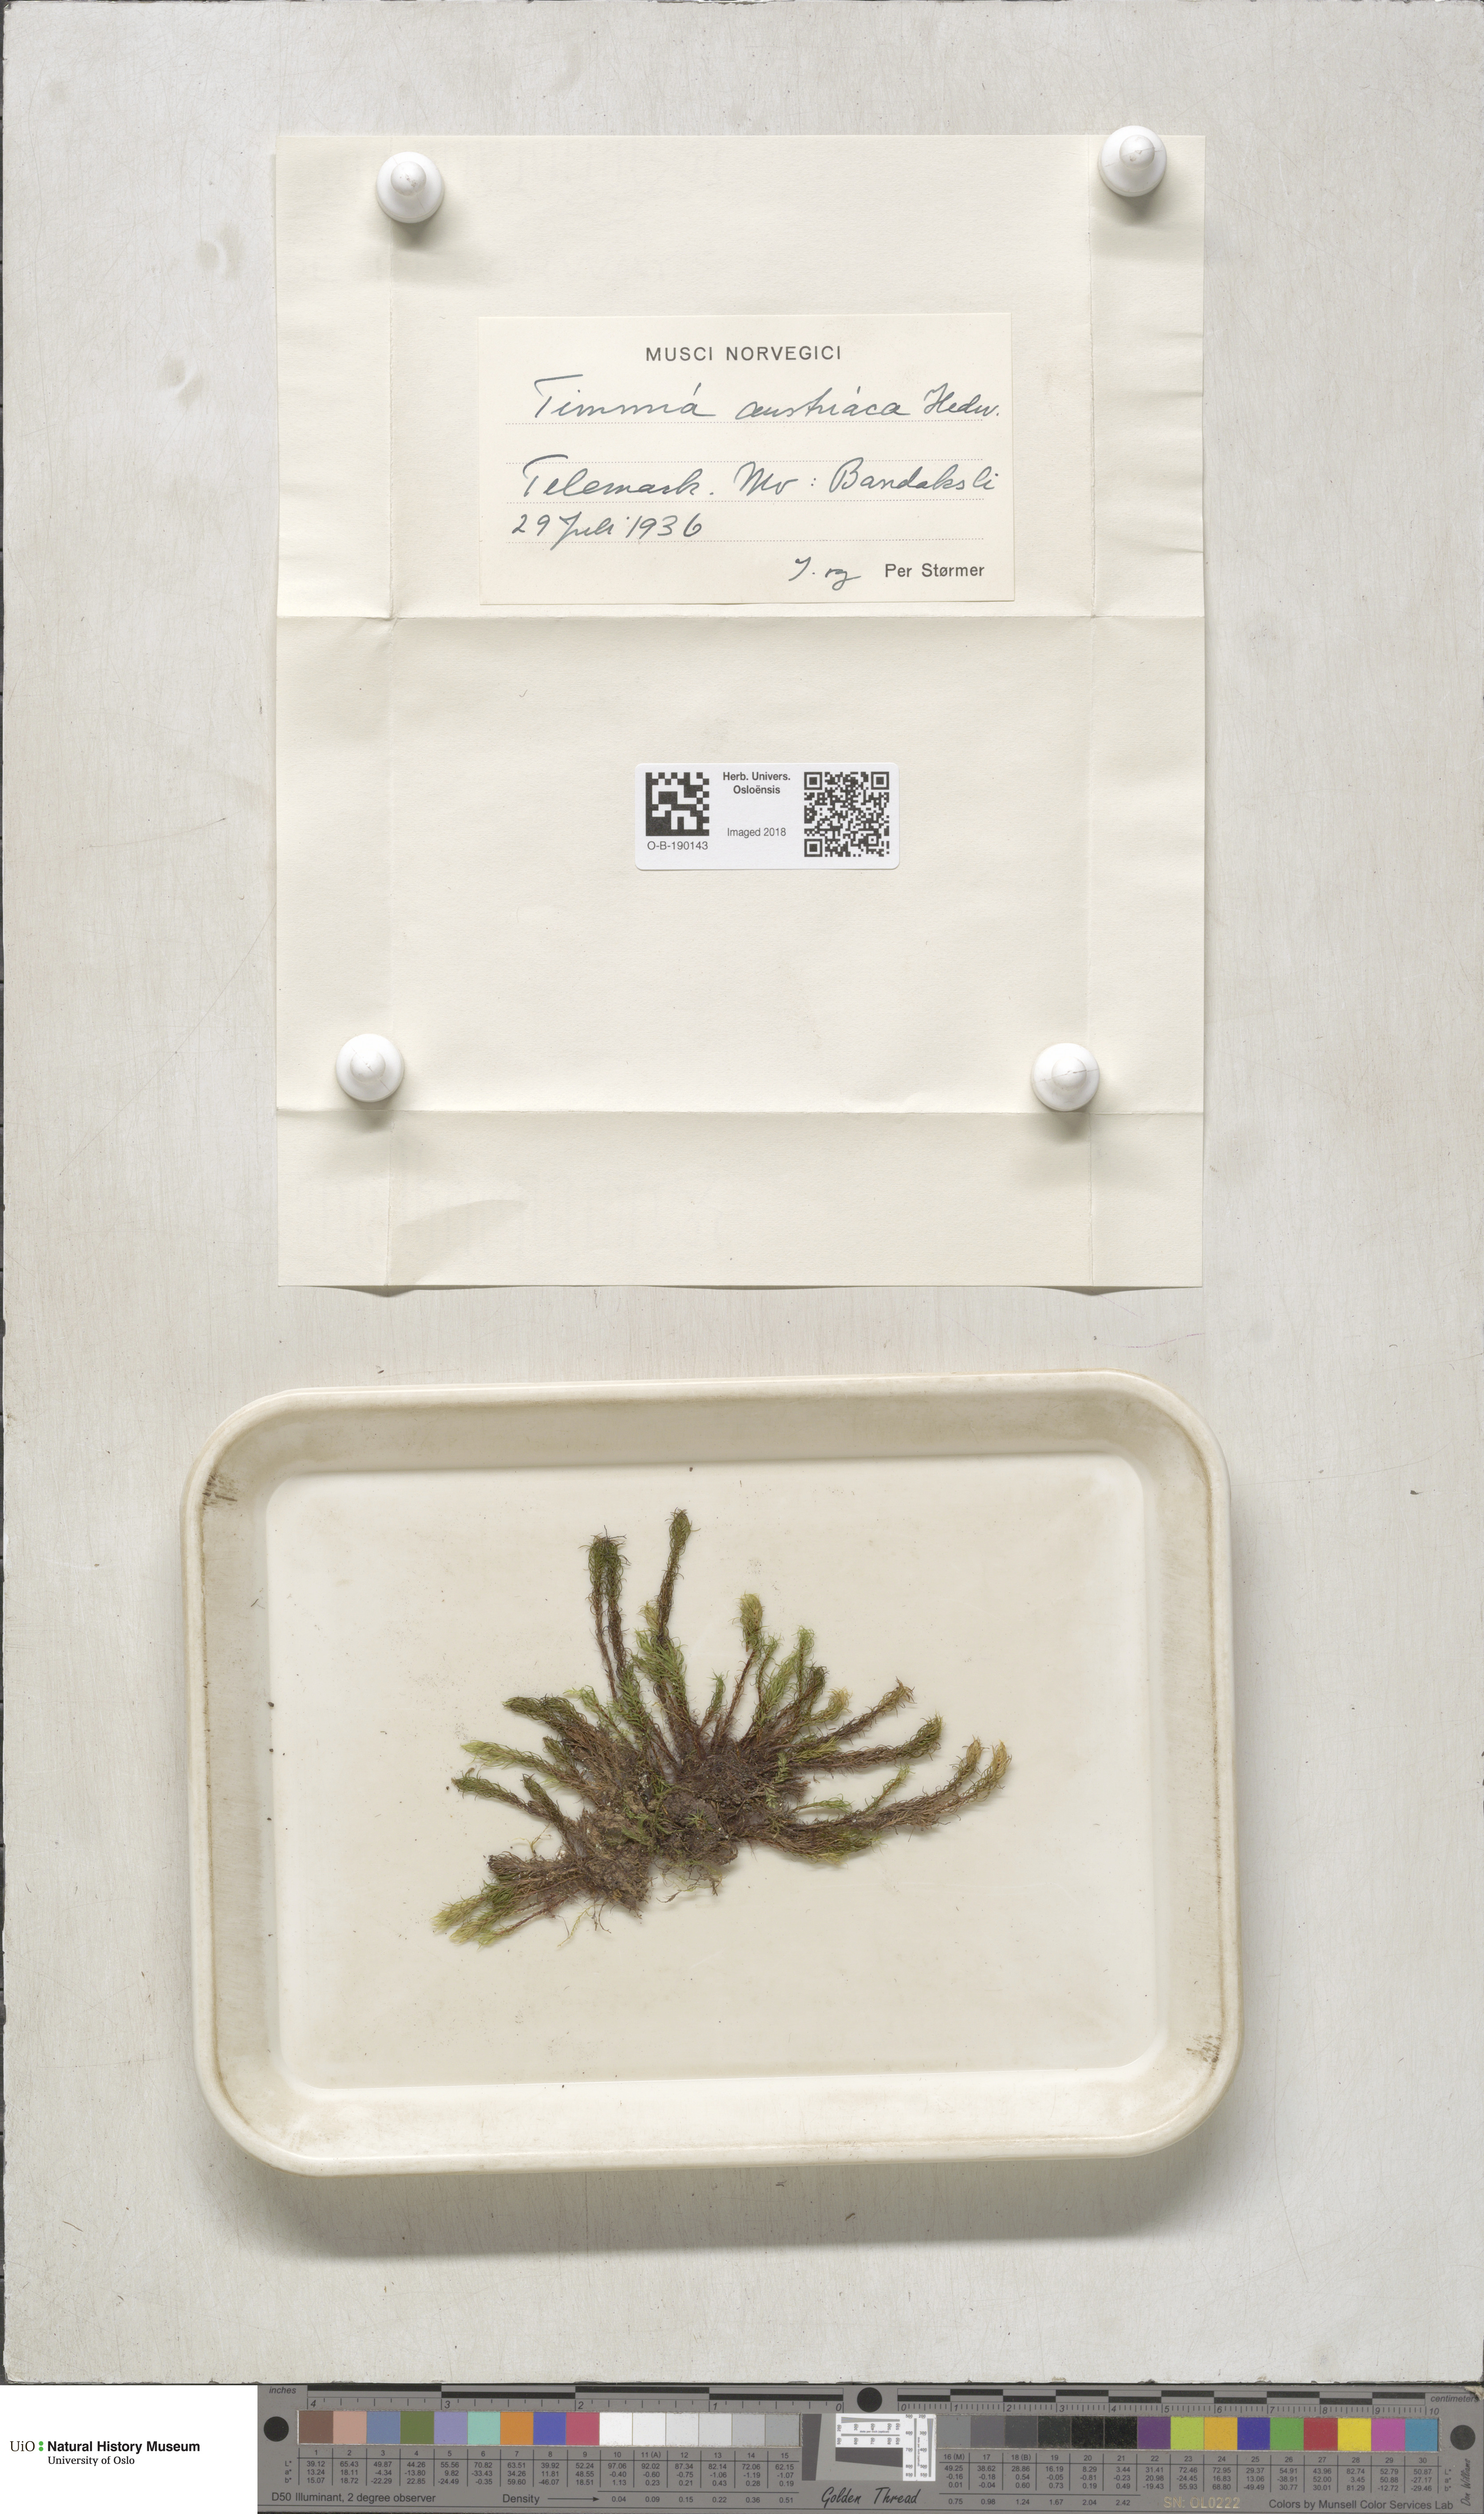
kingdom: Plantae
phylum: Bryophyta
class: Bryopsida
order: Timmiales
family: Timmiaceae
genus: Timmia
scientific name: Timmia austriaca
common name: Austrian timmia
